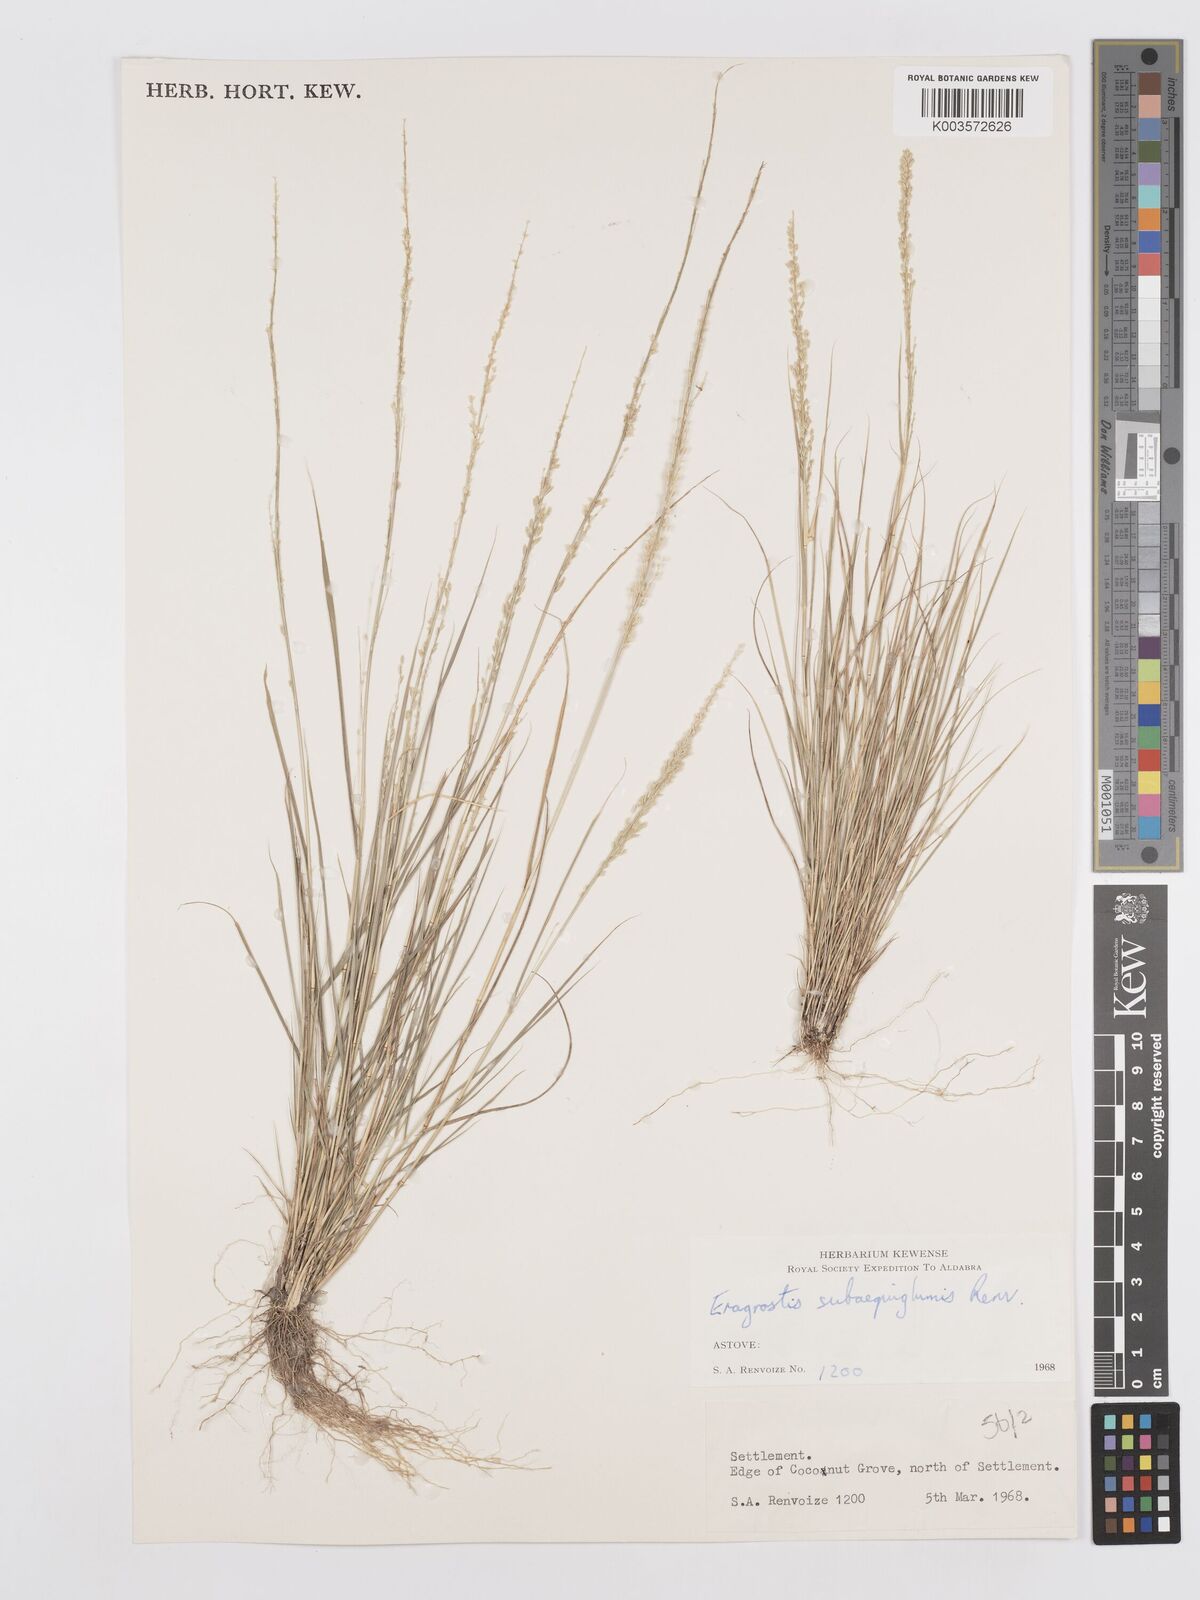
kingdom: Plantae
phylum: Tracheophyta
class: Liliopsida
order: Poales
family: Poaceae
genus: Eragrostis
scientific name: Eragrostis subaequiglumis
